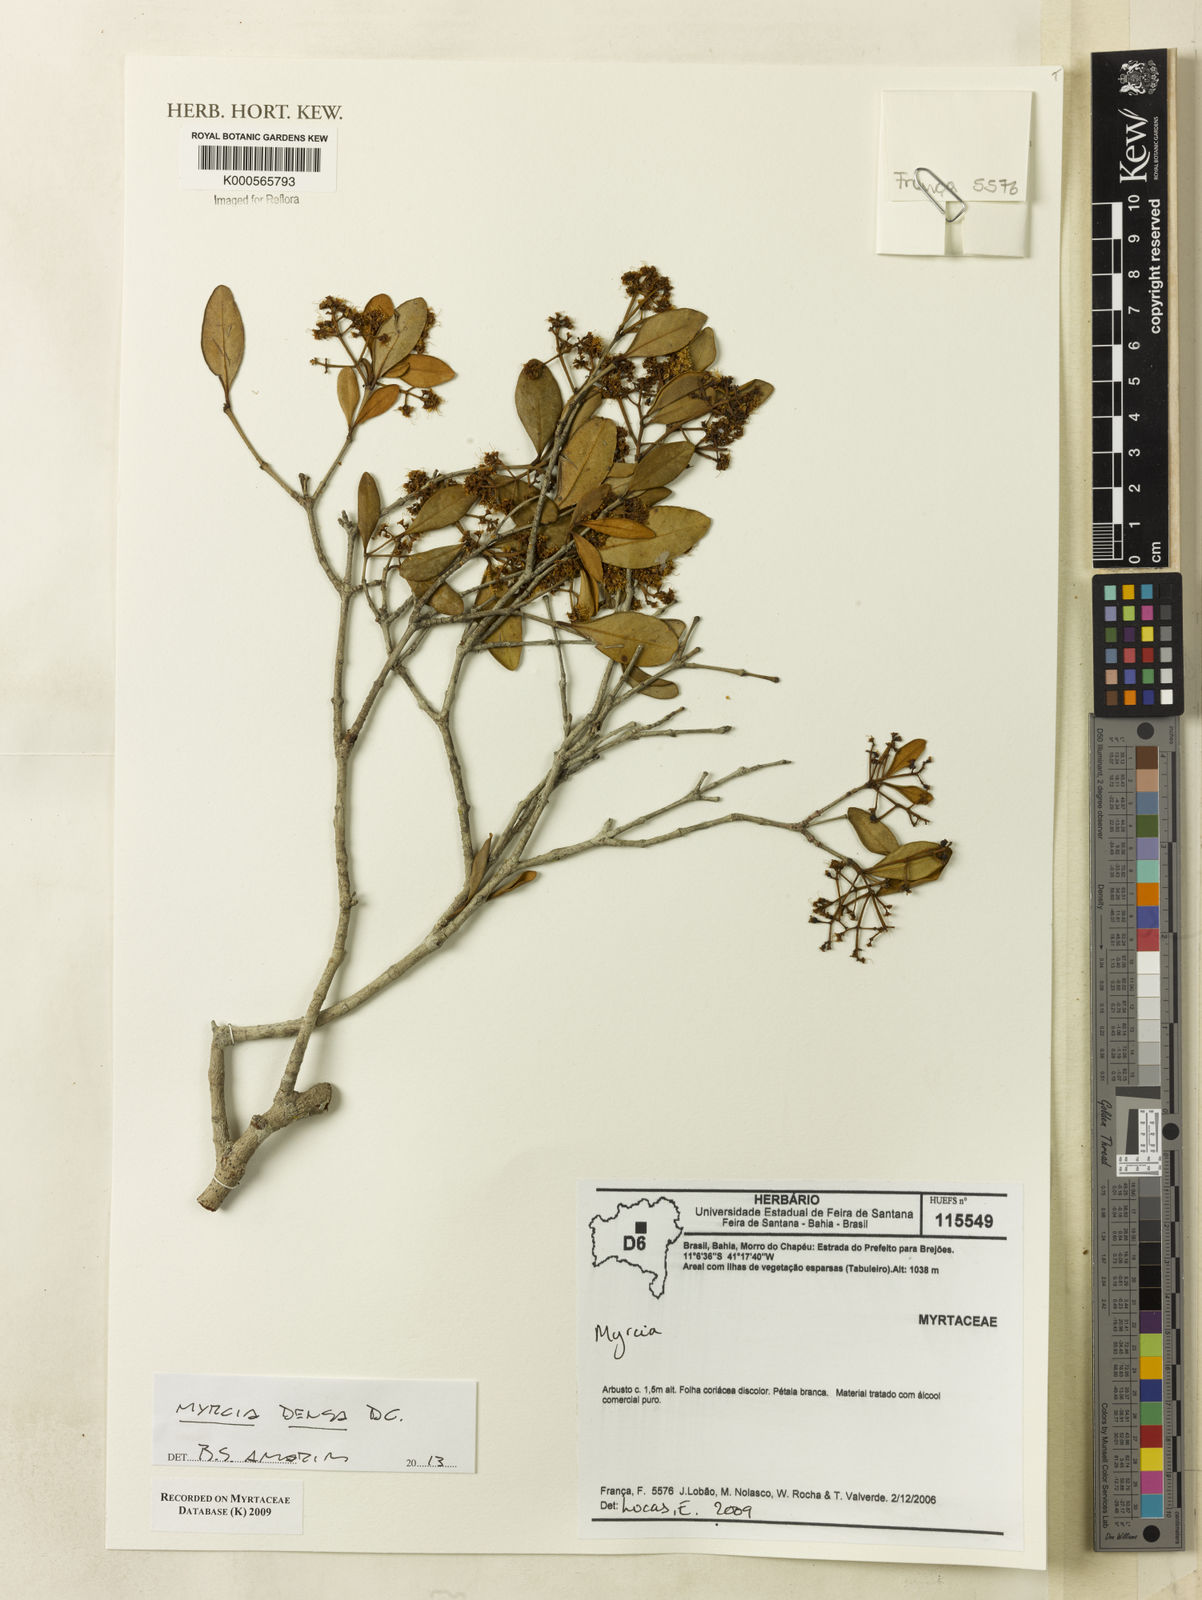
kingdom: Plantae
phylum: Tracheophyta
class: Magnoliopsida
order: Myrtales
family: Myrtaceae
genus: Myrcia
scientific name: Myrcia
